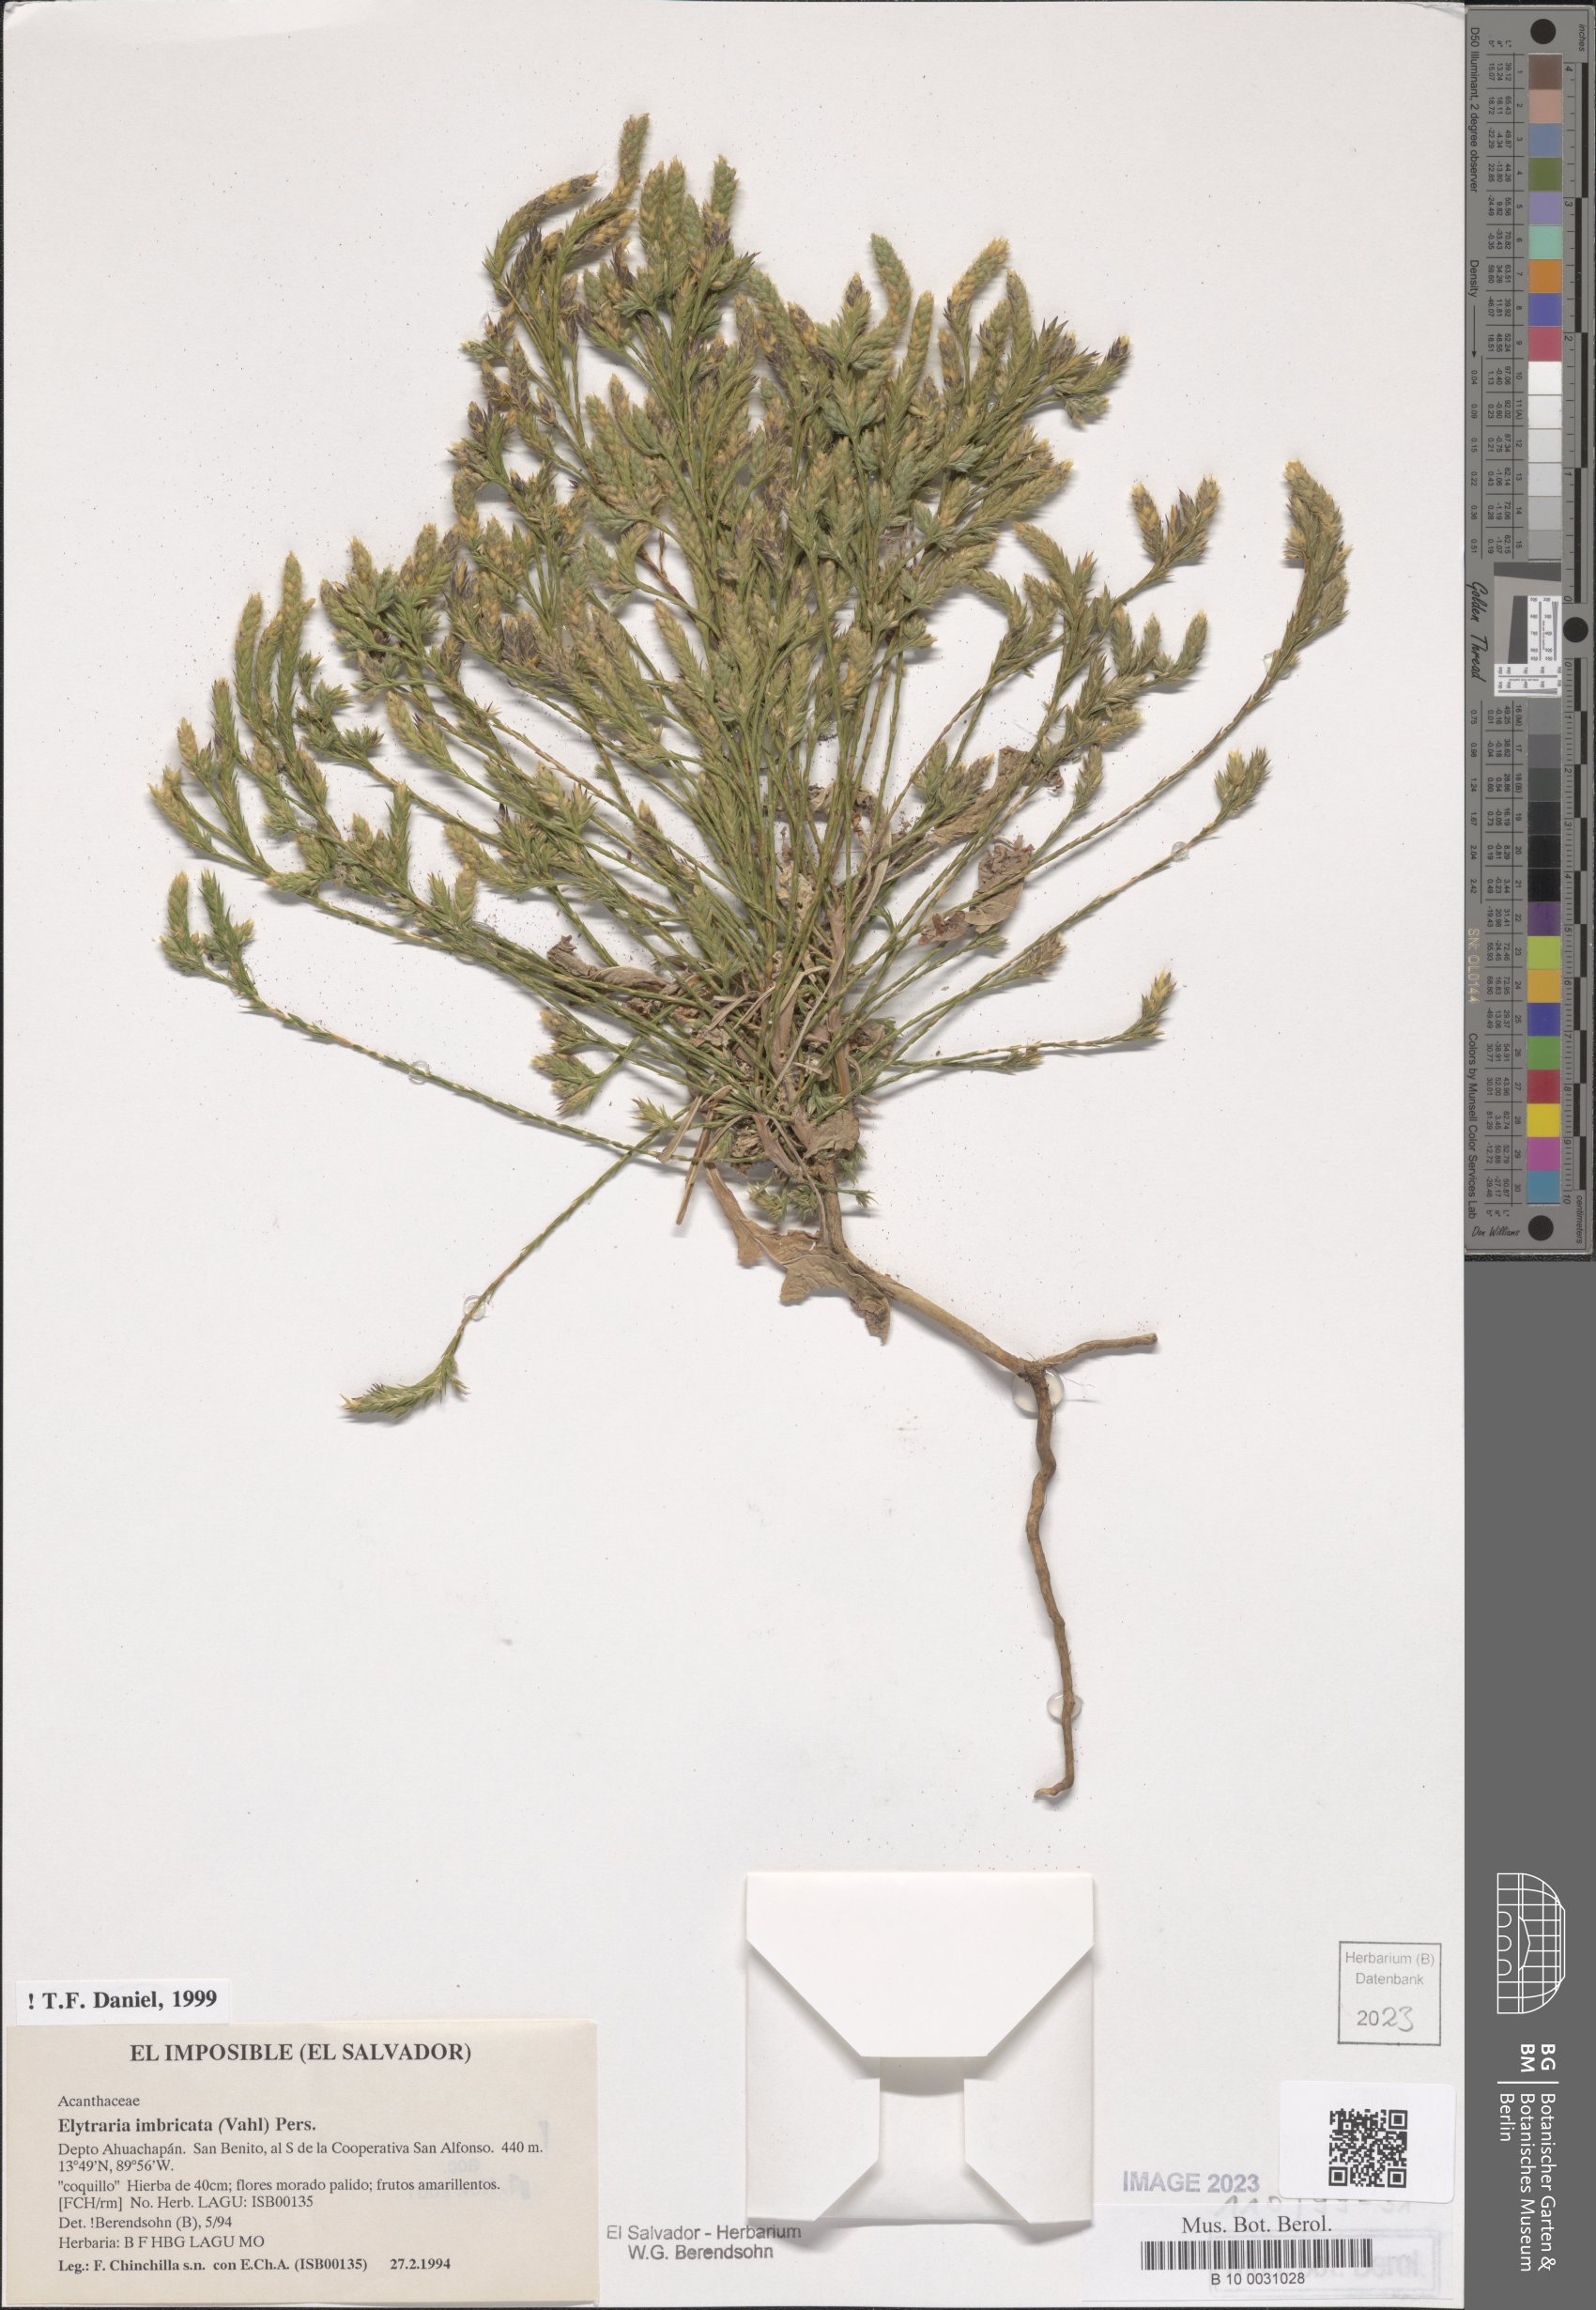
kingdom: Plantae
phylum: Tracheophyta
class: Magnoliopsida
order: Lamiales
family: Acanthaceae
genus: Elytraria
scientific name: Elytraria imbricata
